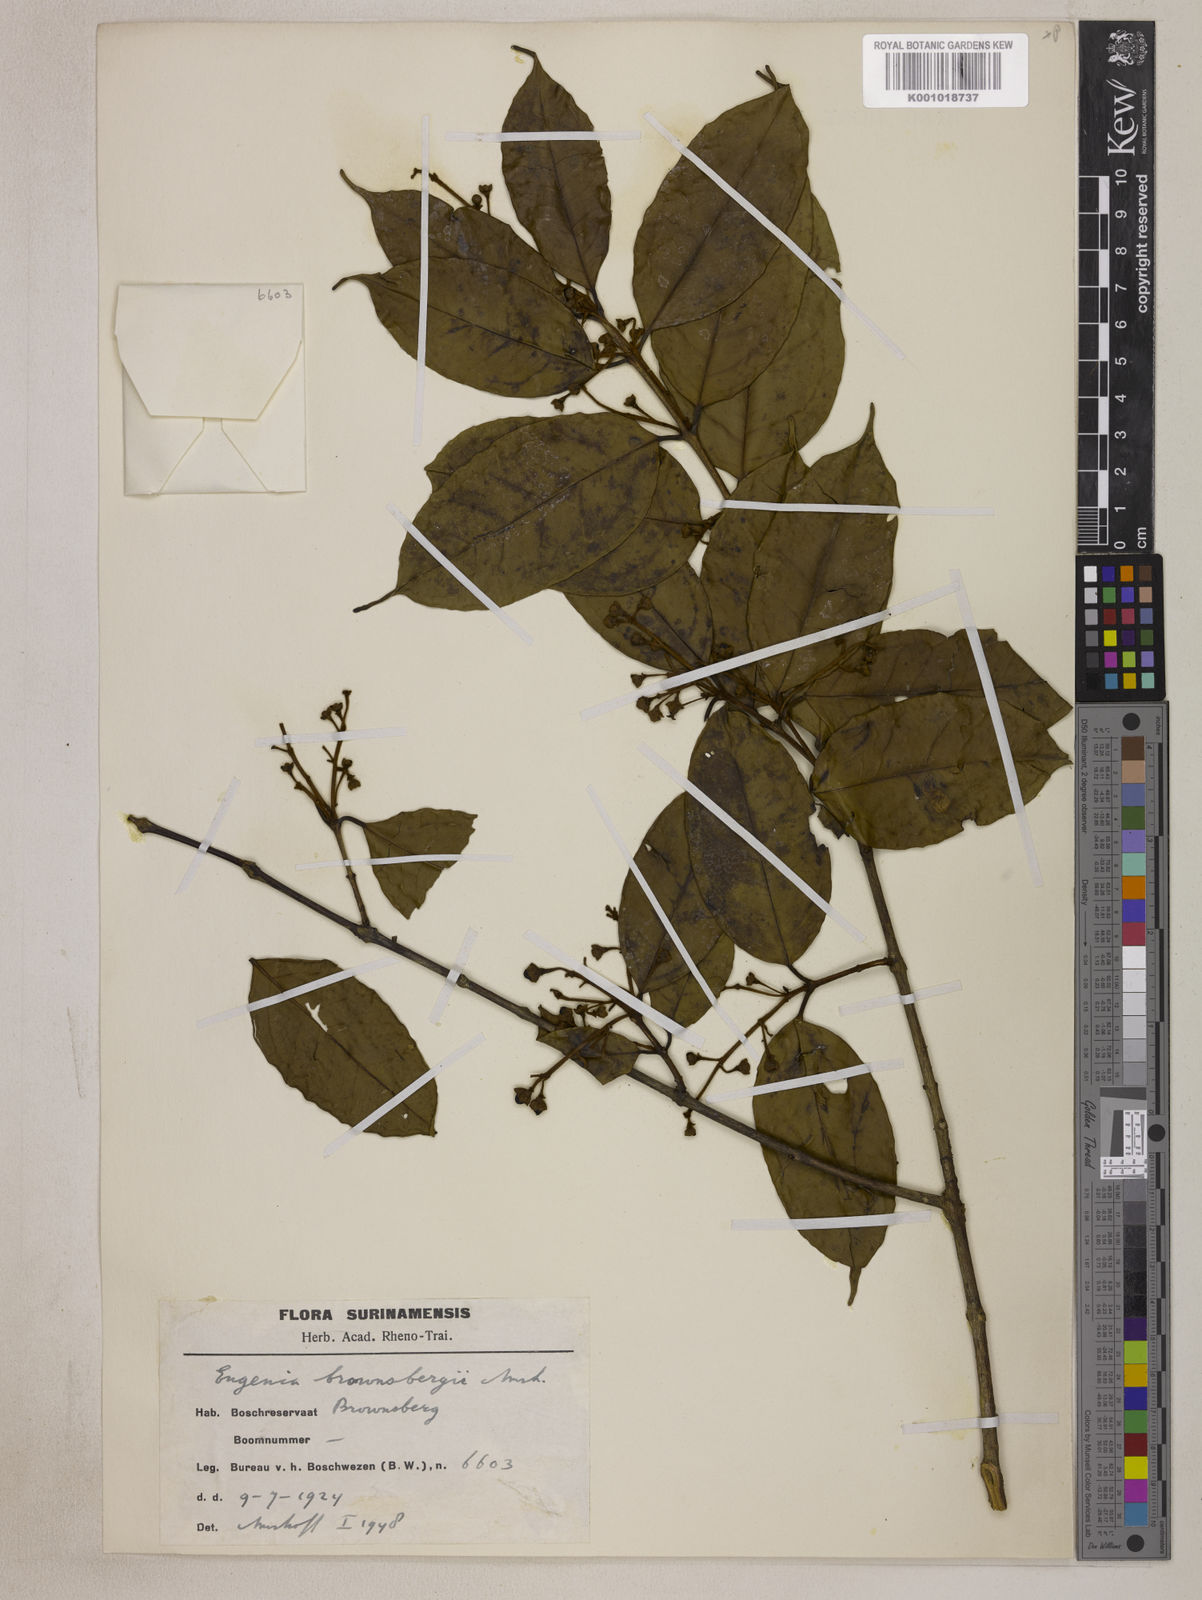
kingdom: Plantae
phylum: Tracheophyta
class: Magnoliopsida
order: Myrtales
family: Myrtaceae
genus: Eugenia
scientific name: Eugenia brownsbergii
